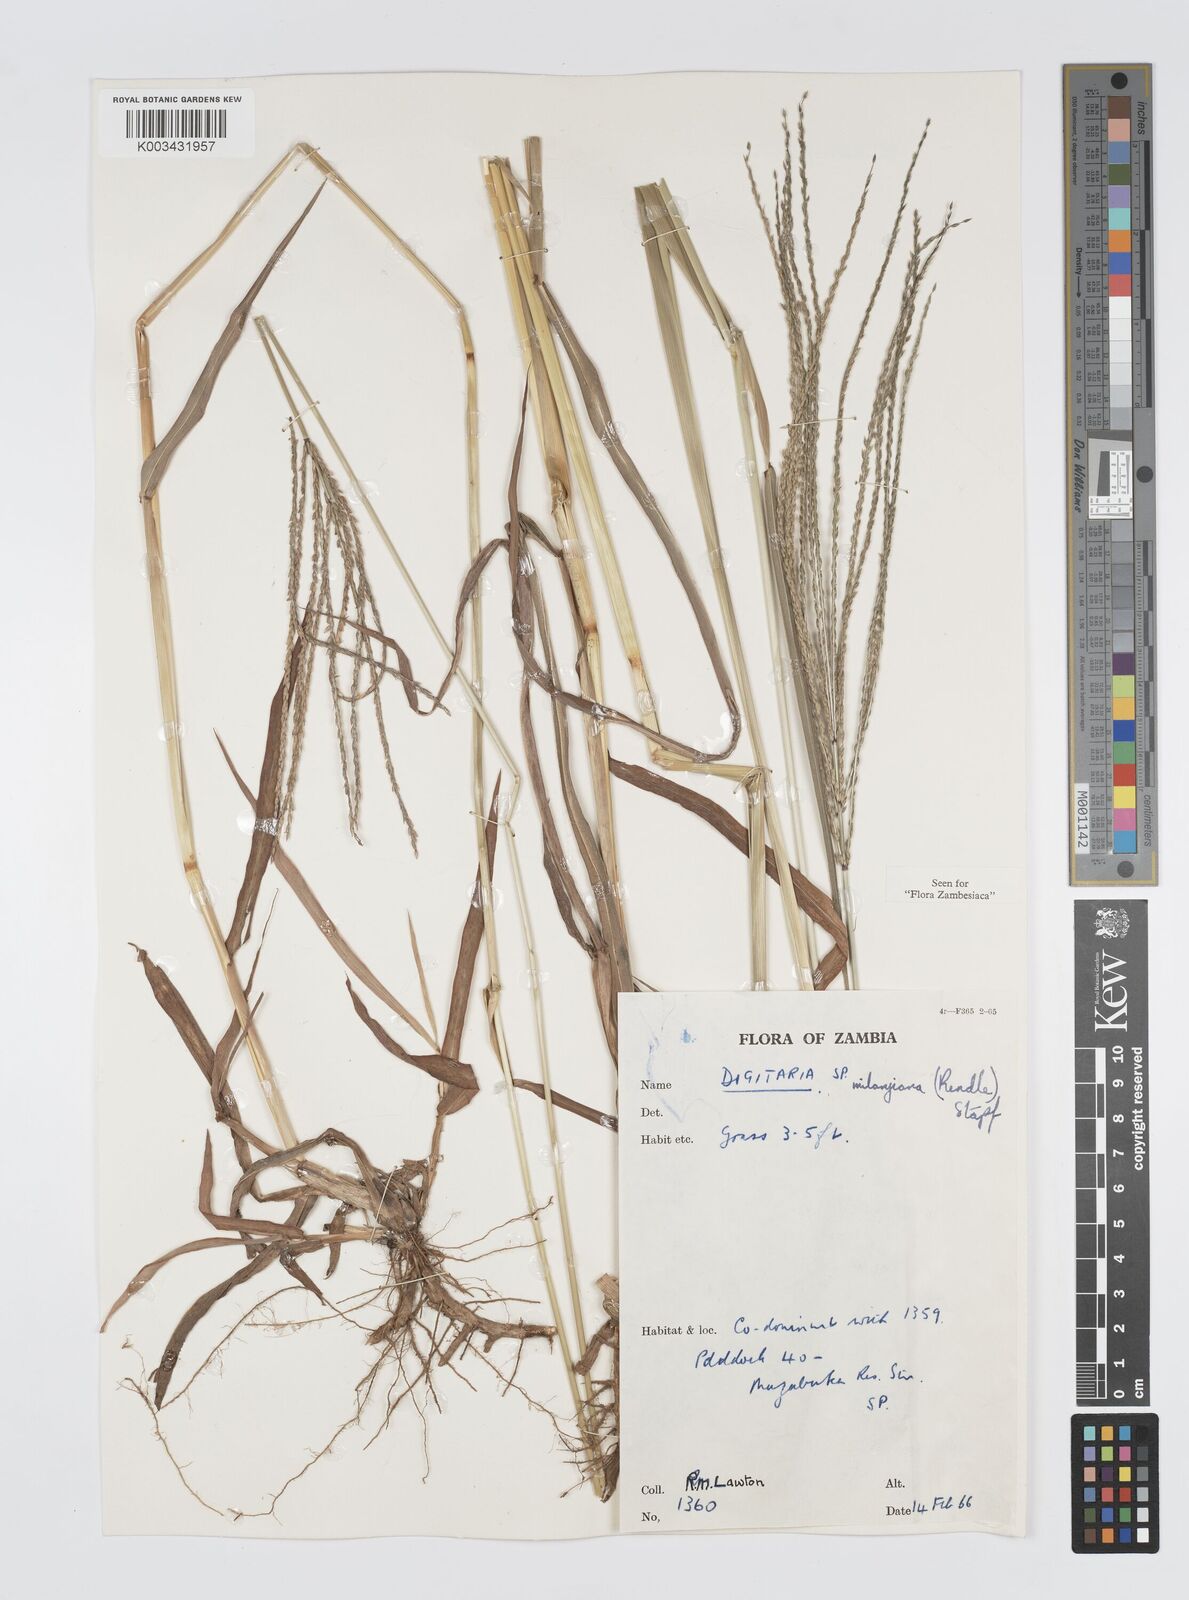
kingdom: Plantae
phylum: Tracheophyta
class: Liliopsida
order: Poales
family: Poaceae
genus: Digitaria
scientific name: Digitaria milanjiana
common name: Madagascar crabgrass
